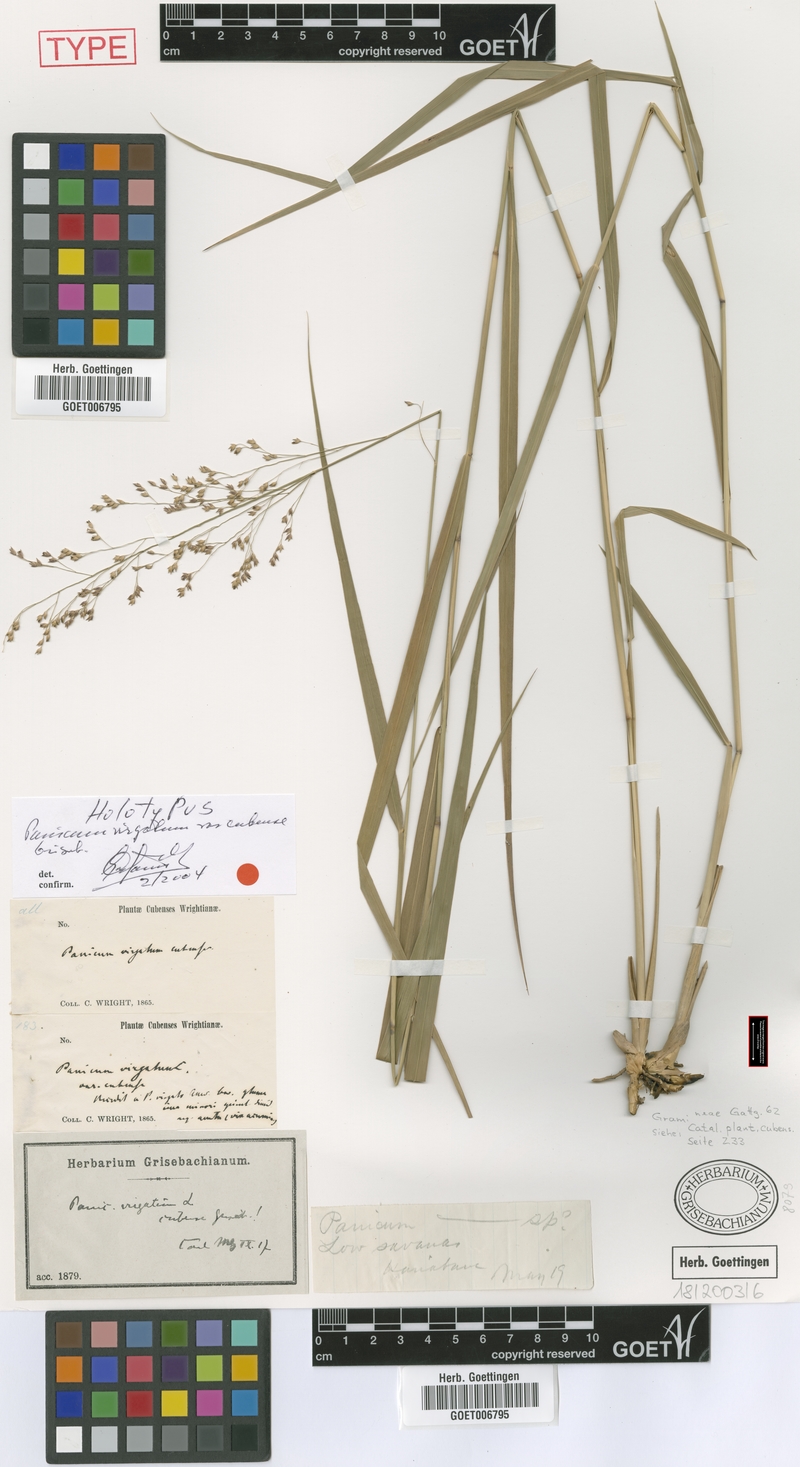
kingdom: Plantae
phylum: Tracheophyta
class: Liliopsida
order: Poales
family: Poaceae
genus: Panicum
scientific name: Panicum virgatum
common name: Switchgrass
